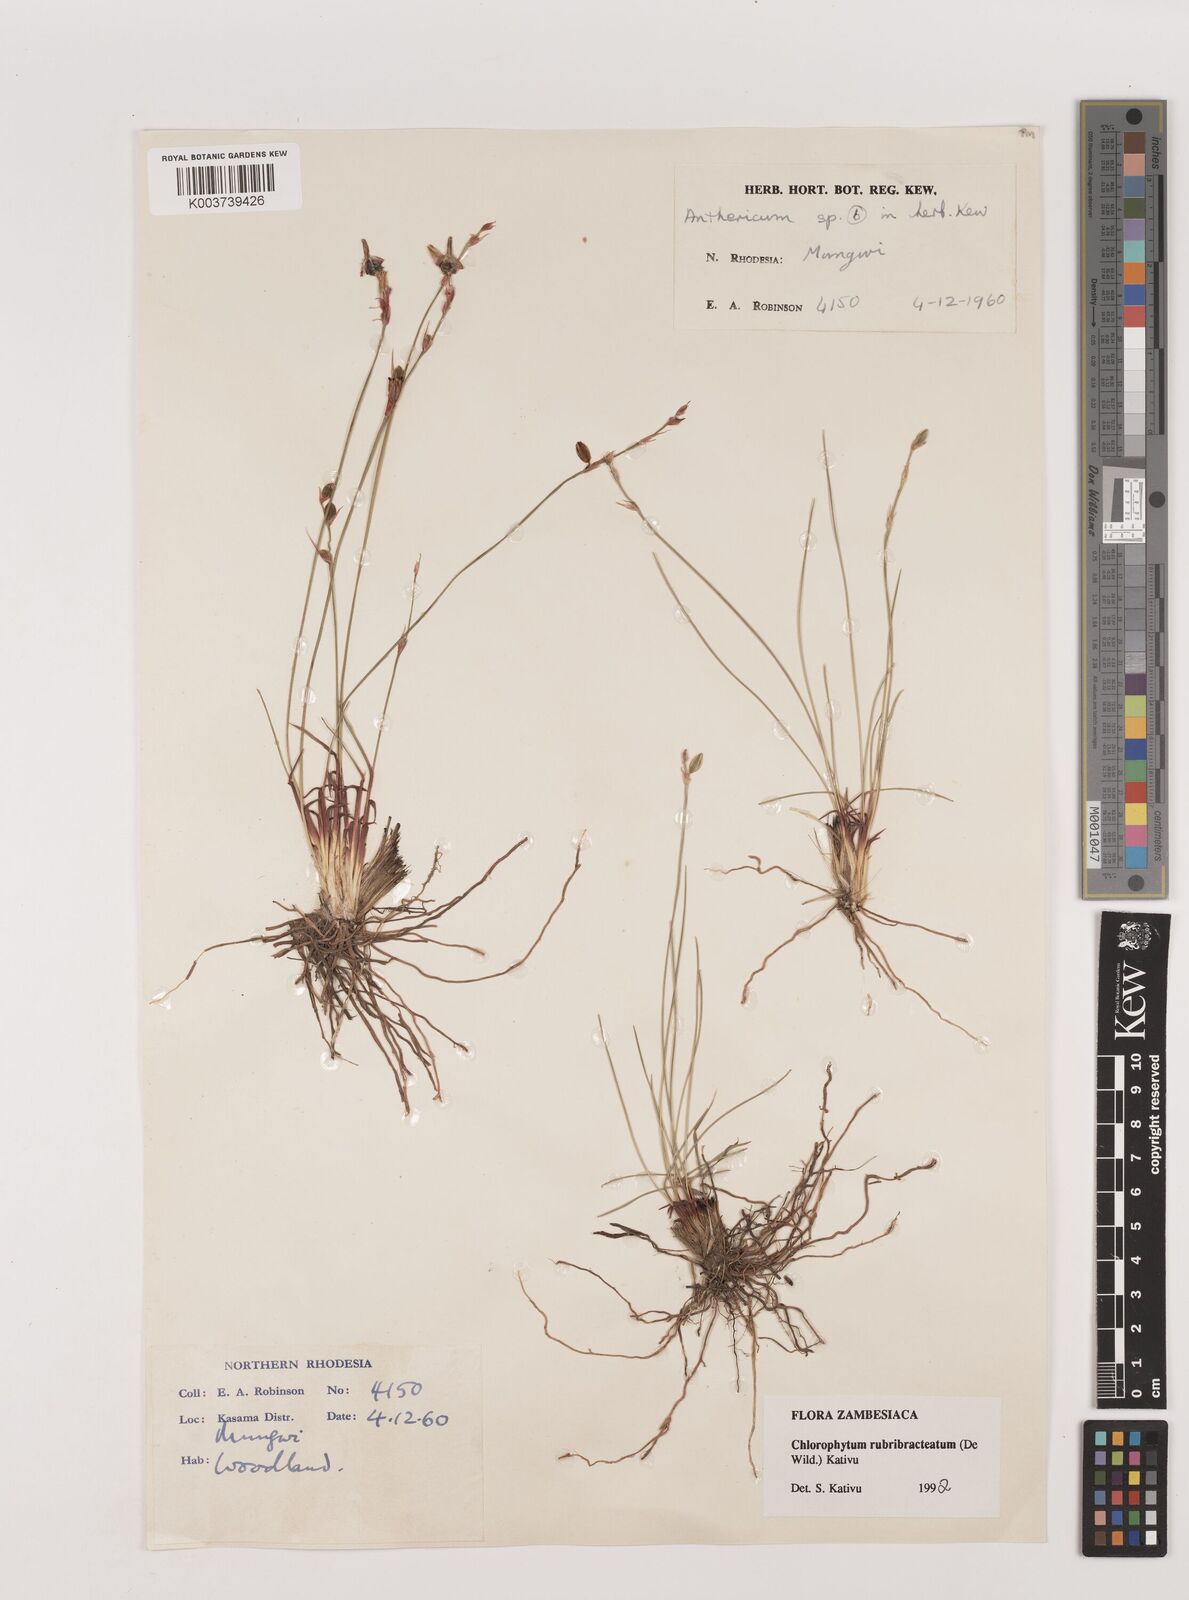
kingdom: Plantae
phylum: Tracheophyta
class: Liliopsida
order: Asparagales
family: Asparagaceae
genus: Chlorophytum
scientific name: Chlorophytum rubribracteatum
